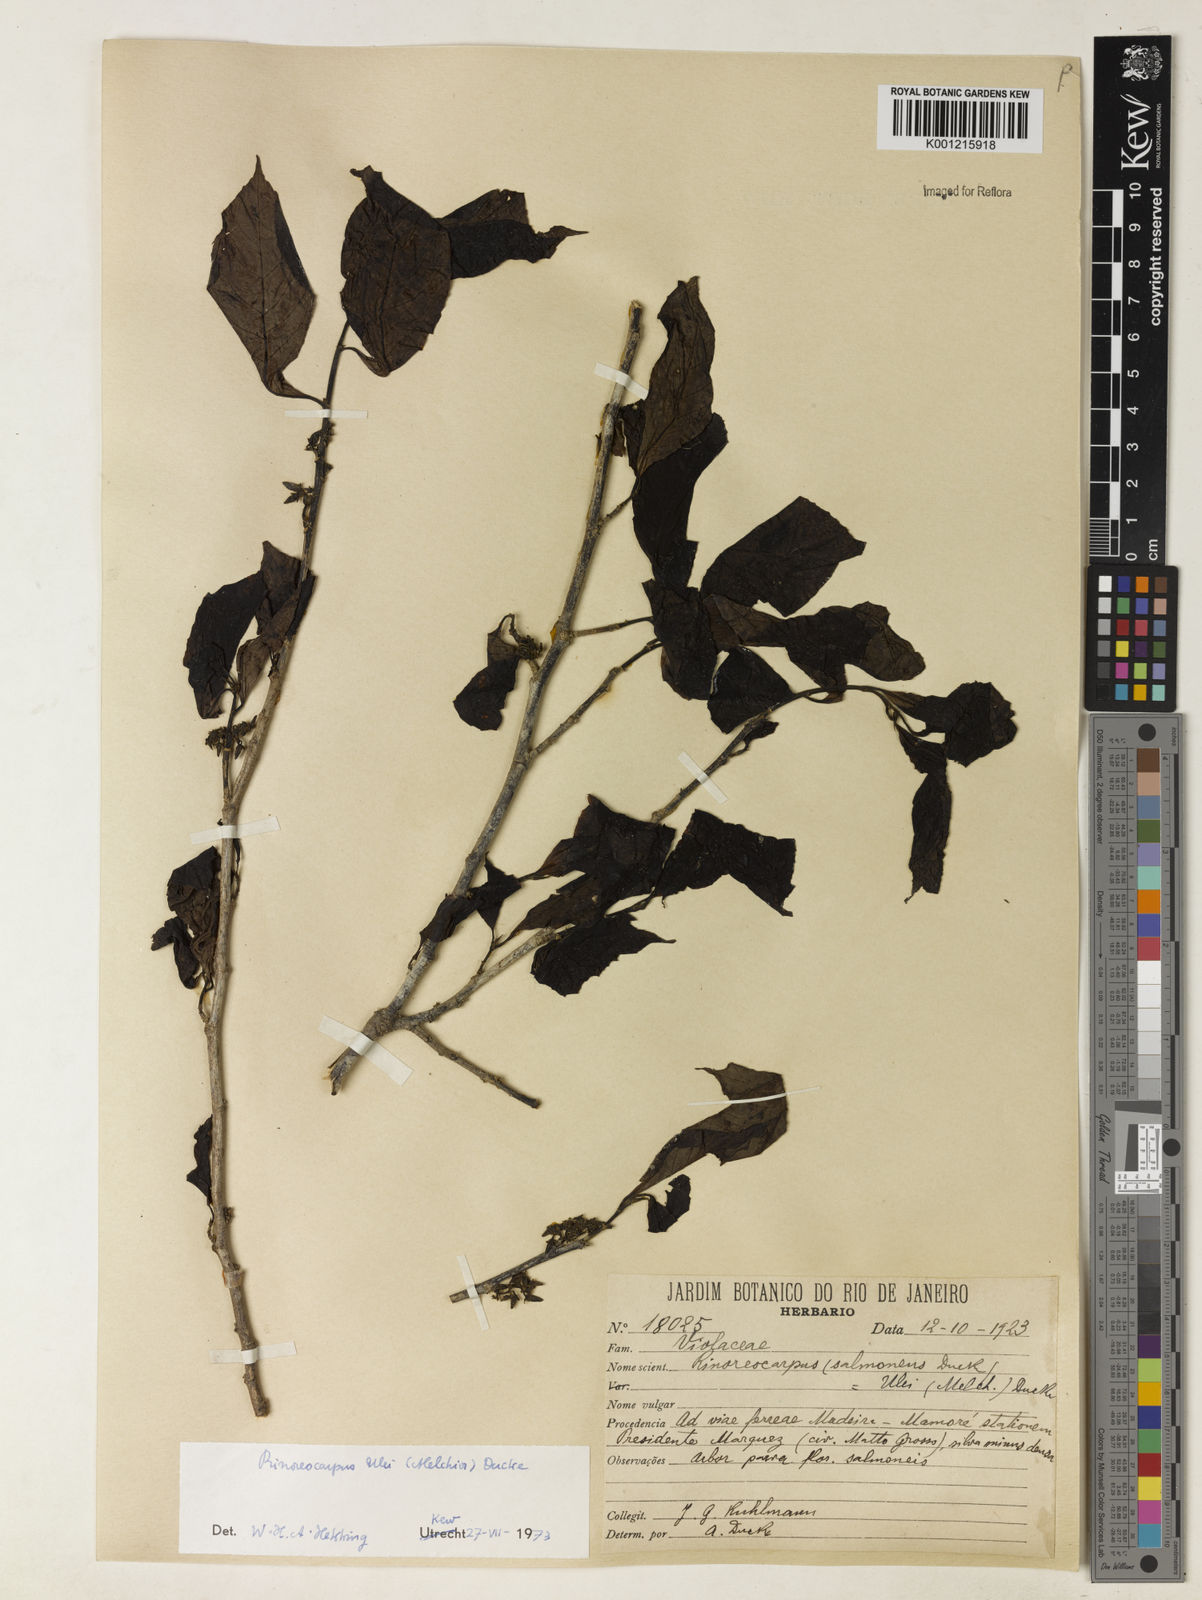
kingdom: Plantae
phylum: Tracheophyta
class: Magnoliopsida
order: Malpighiales
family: Violaceae
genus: Rinorea
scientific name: Rinorea
